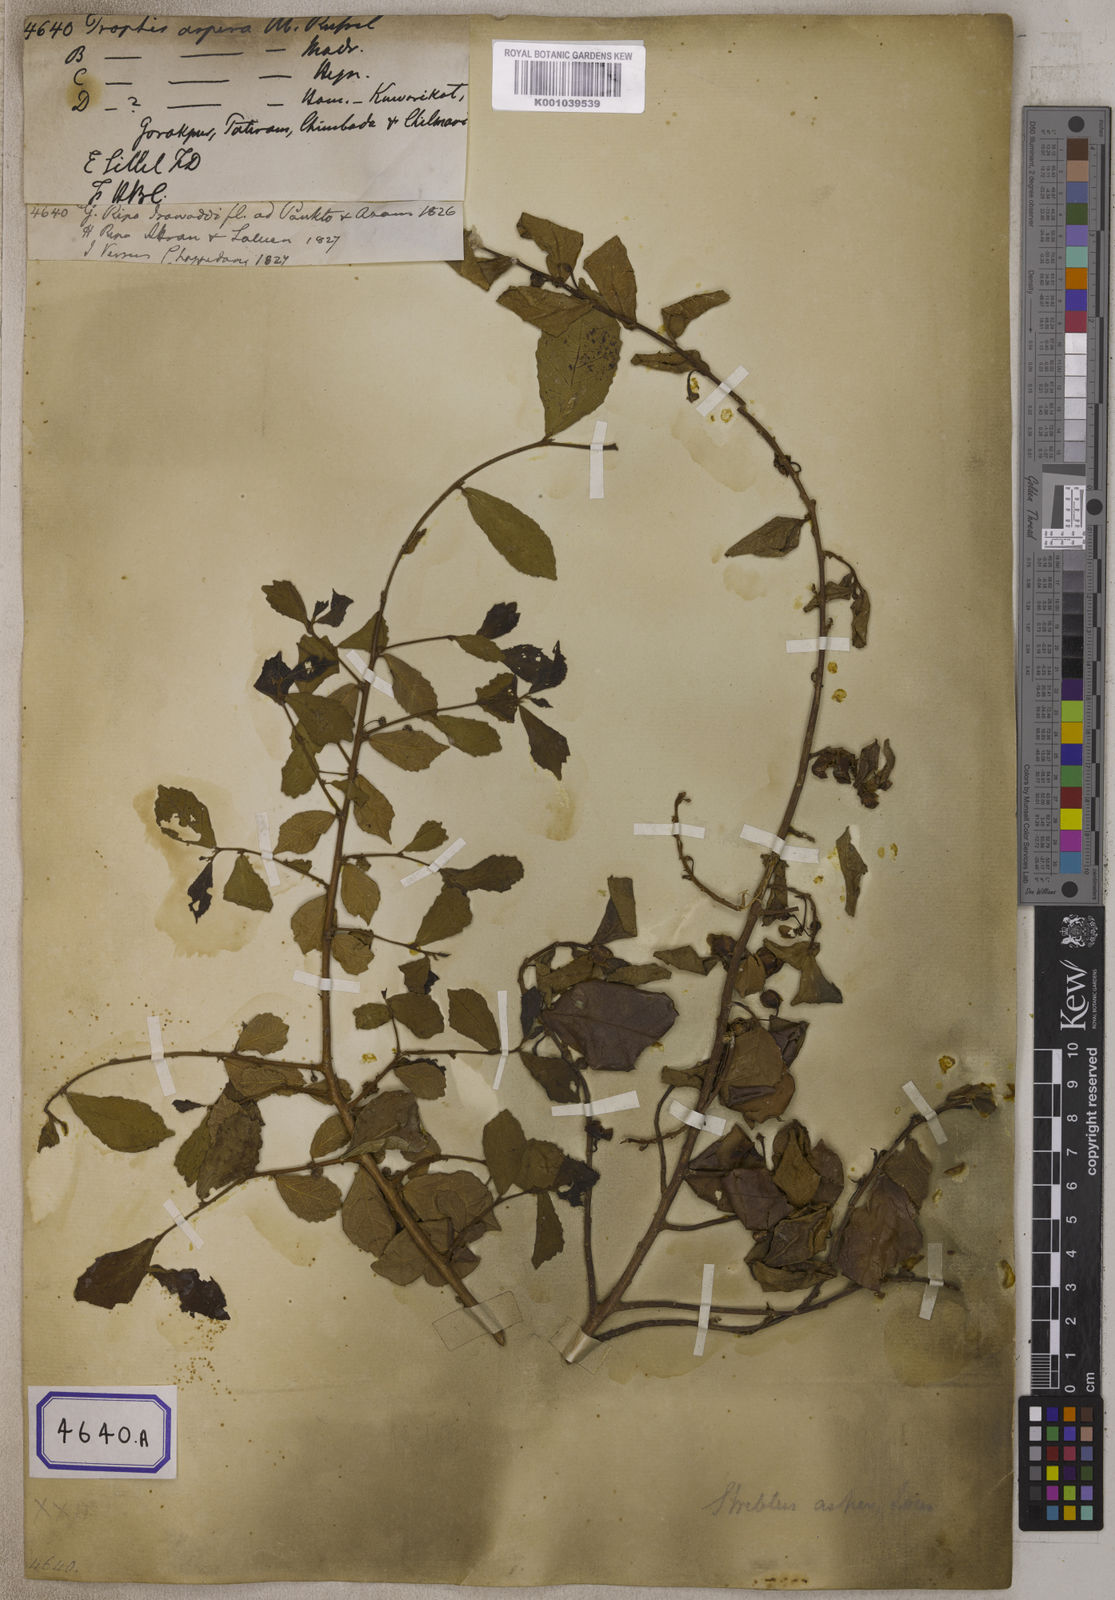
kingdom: Plantae
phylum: Tracheophyta
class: Magnoliopsida
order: Rosales
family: Moraceae
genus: Streblus
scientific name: Streblus asper
